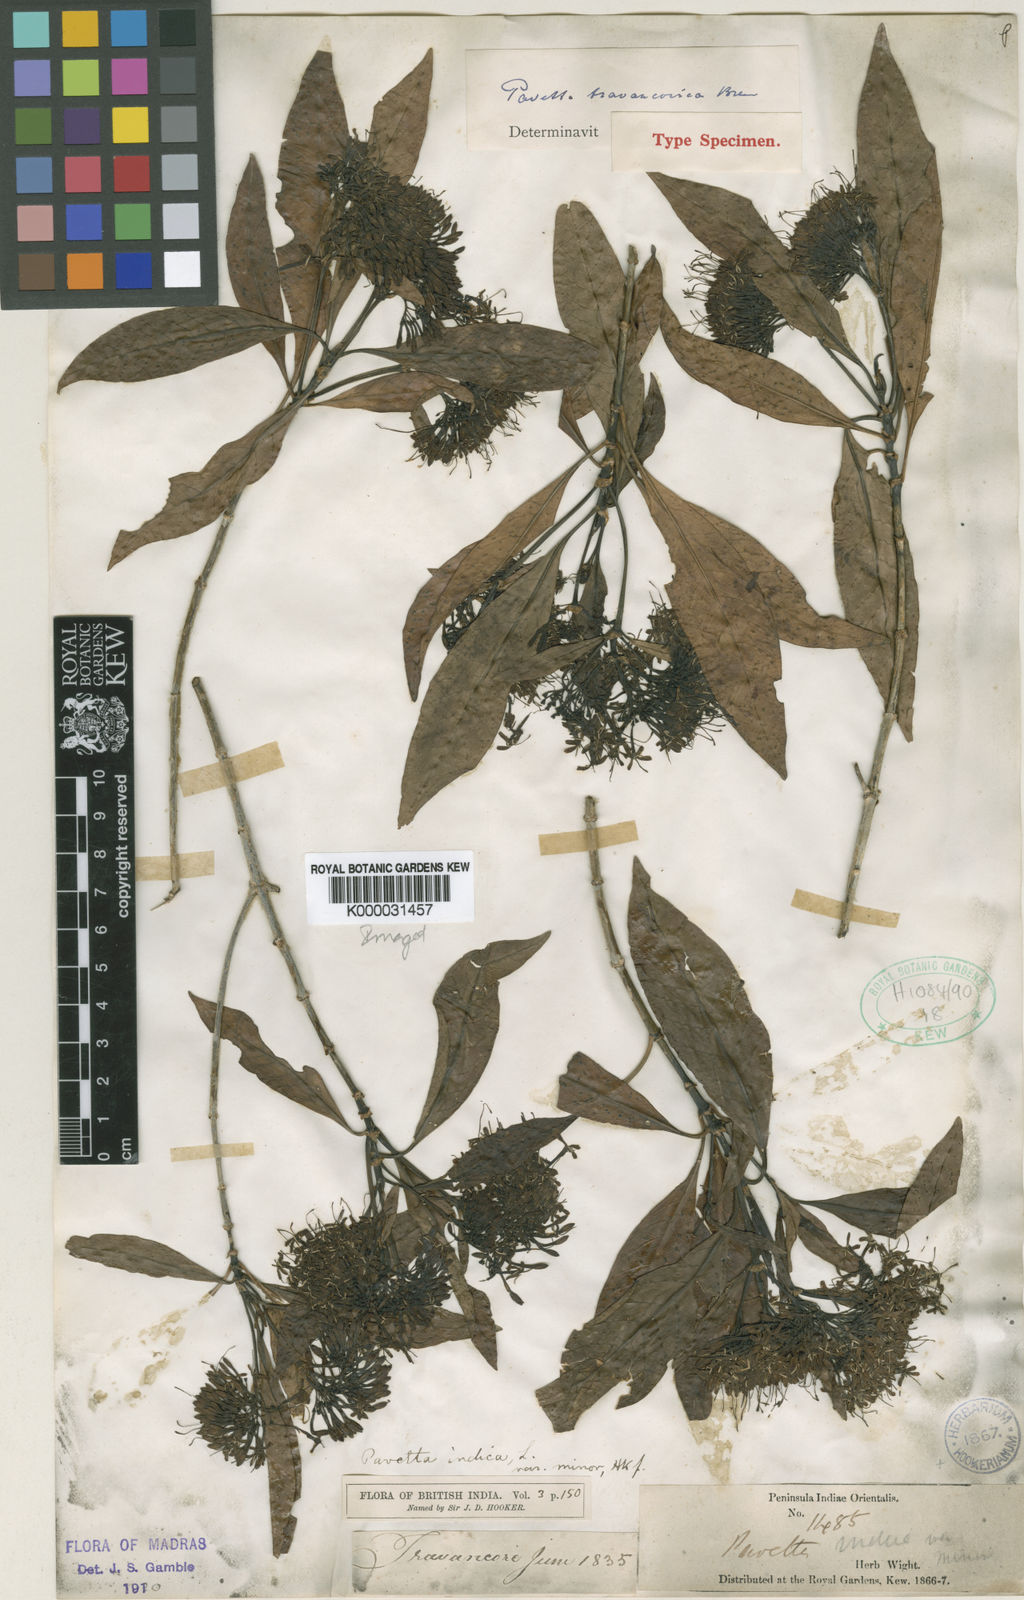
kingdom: Plantae
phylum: Tracheophyta
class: Magnoliopsida
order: Gentianales
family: Rubiaceae
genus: Pavetta
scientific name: Pavetta travancorica
